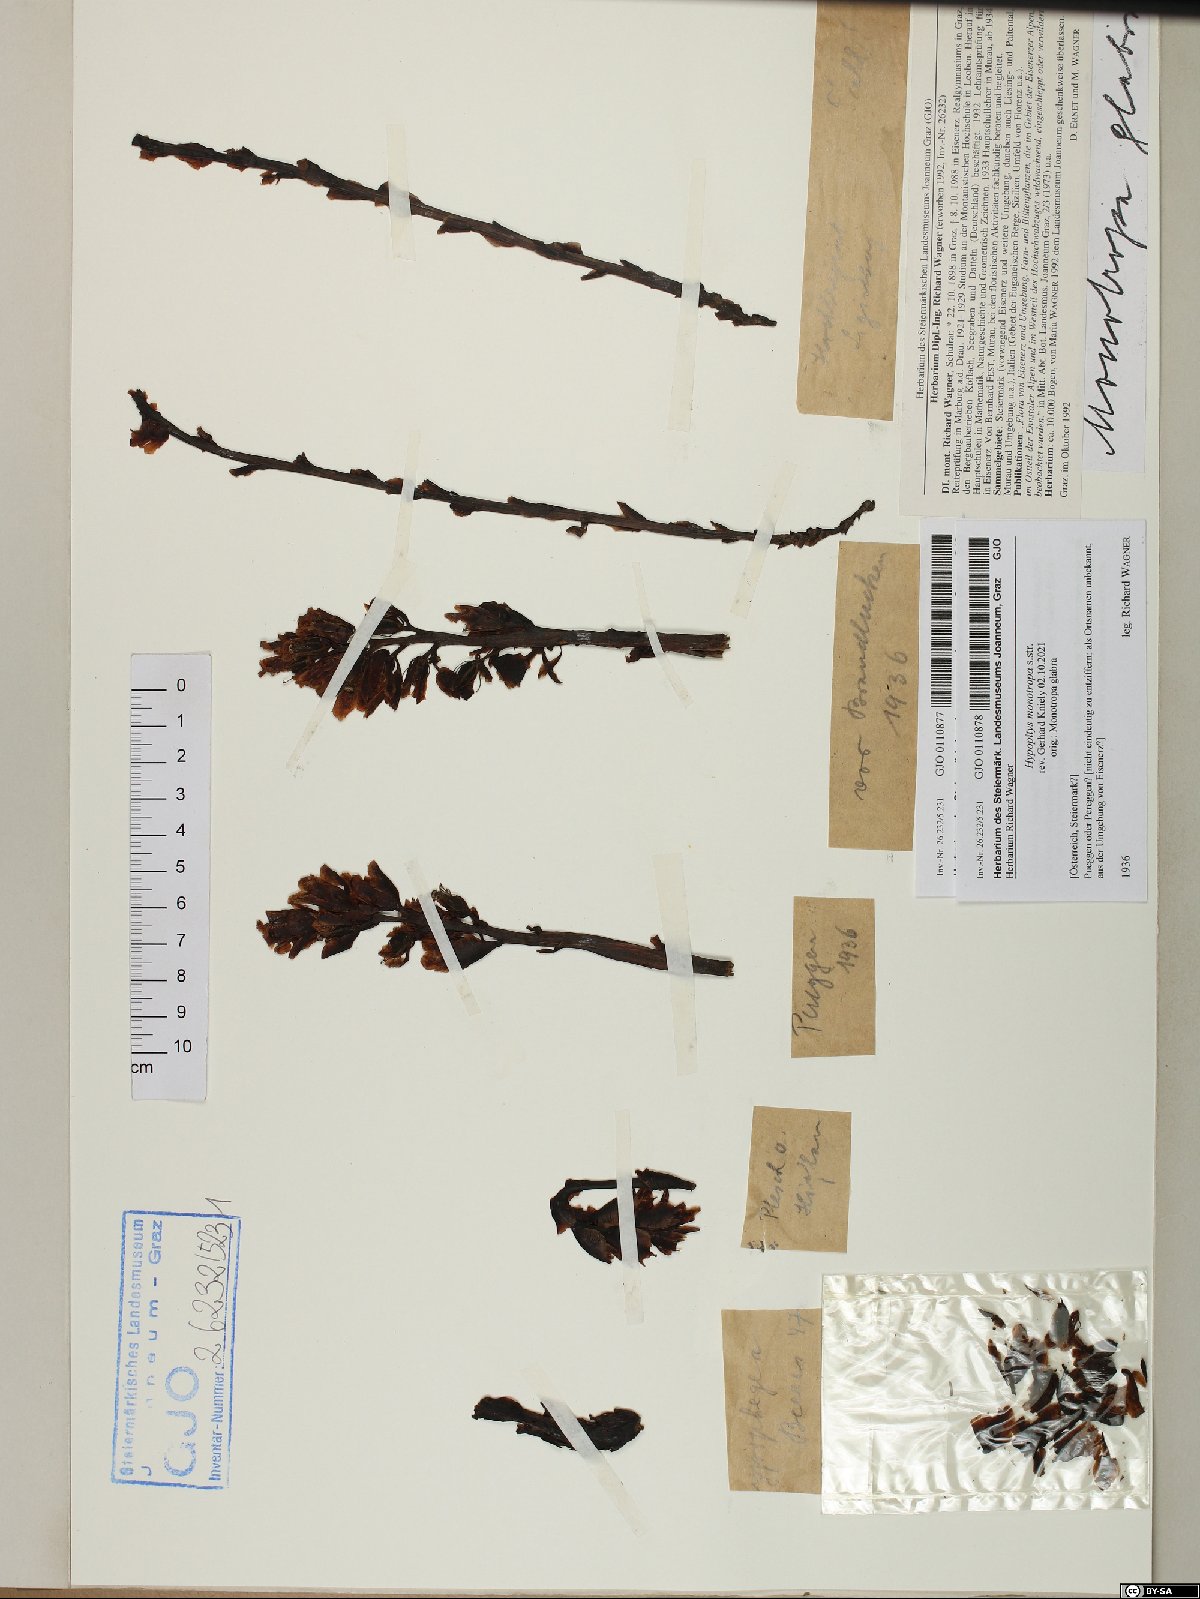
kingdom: Plantae
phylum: Tracheophyta
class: Magnoliopsida
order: Ericales
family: Ericaceae
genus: Hypopitys
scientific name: Hypopitys monotropa
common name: Yellow bird's-nest
